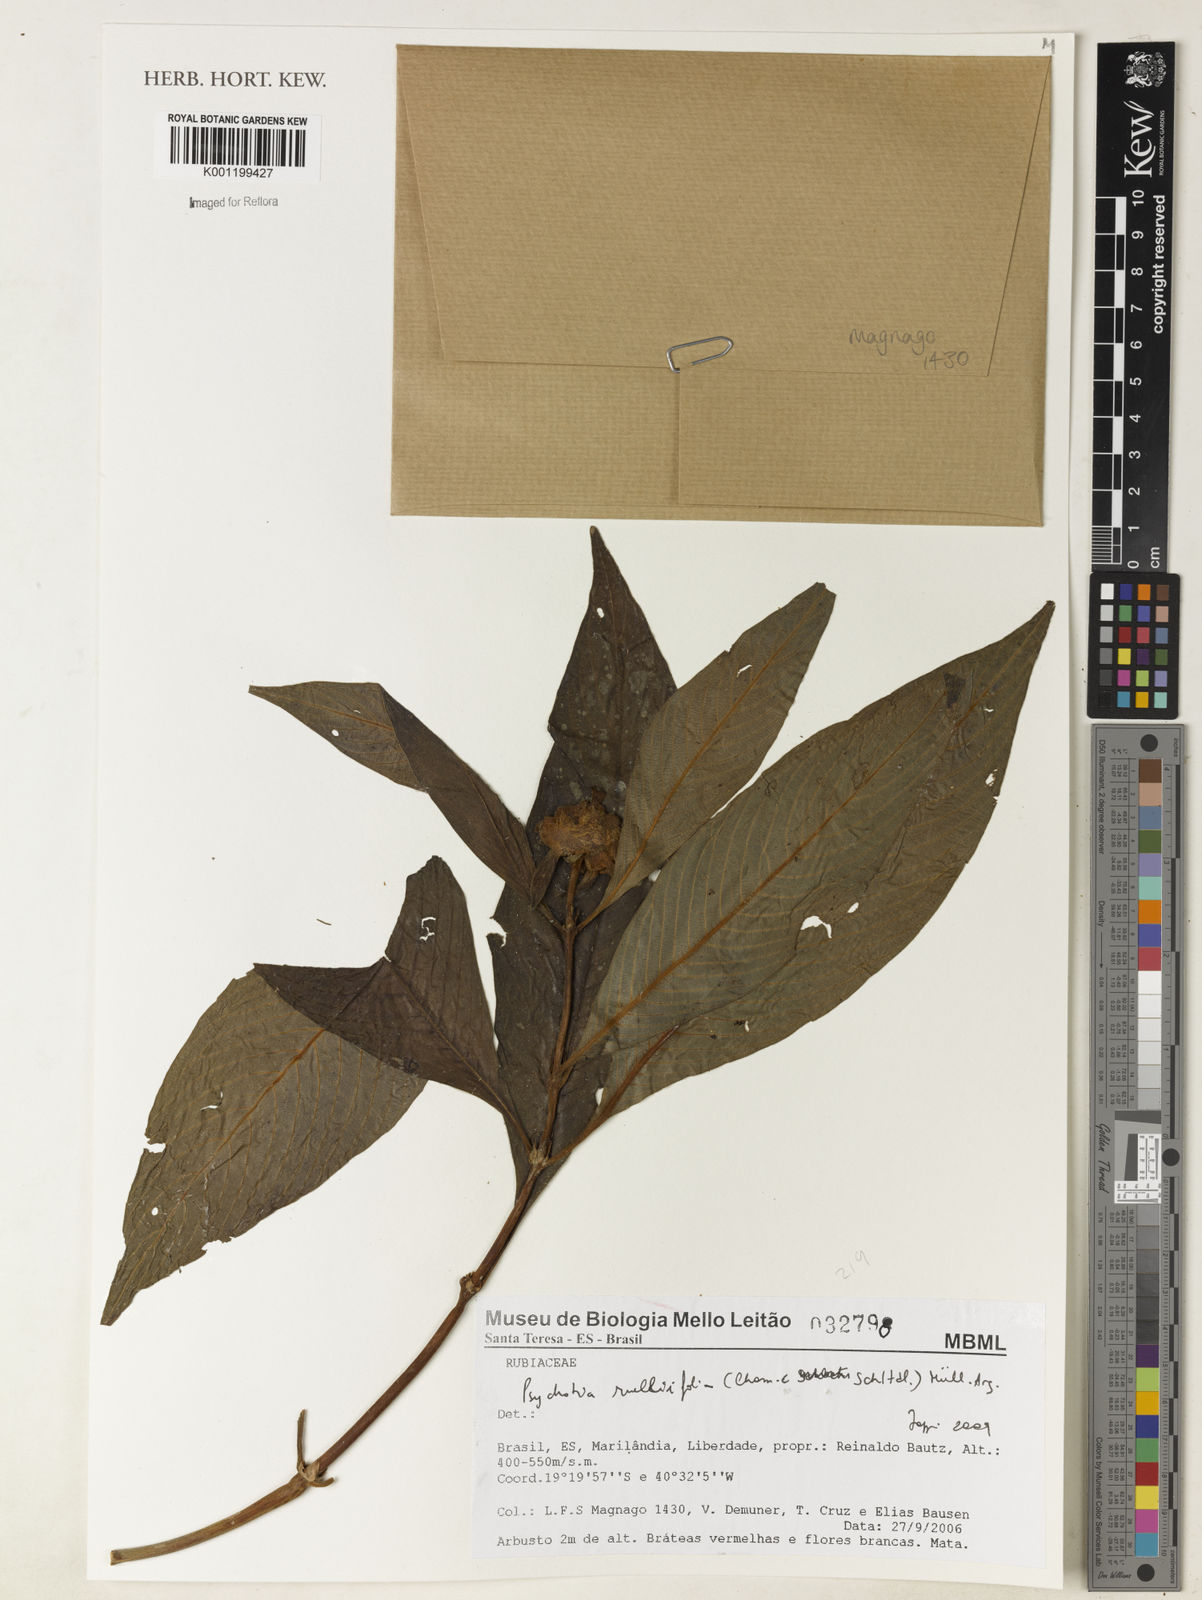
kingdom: Plantae
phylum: Tracheophyta
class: Magnoliopsida
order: Gentianales
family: Rubiaceae
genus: Psychotria
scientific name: Psychotria
